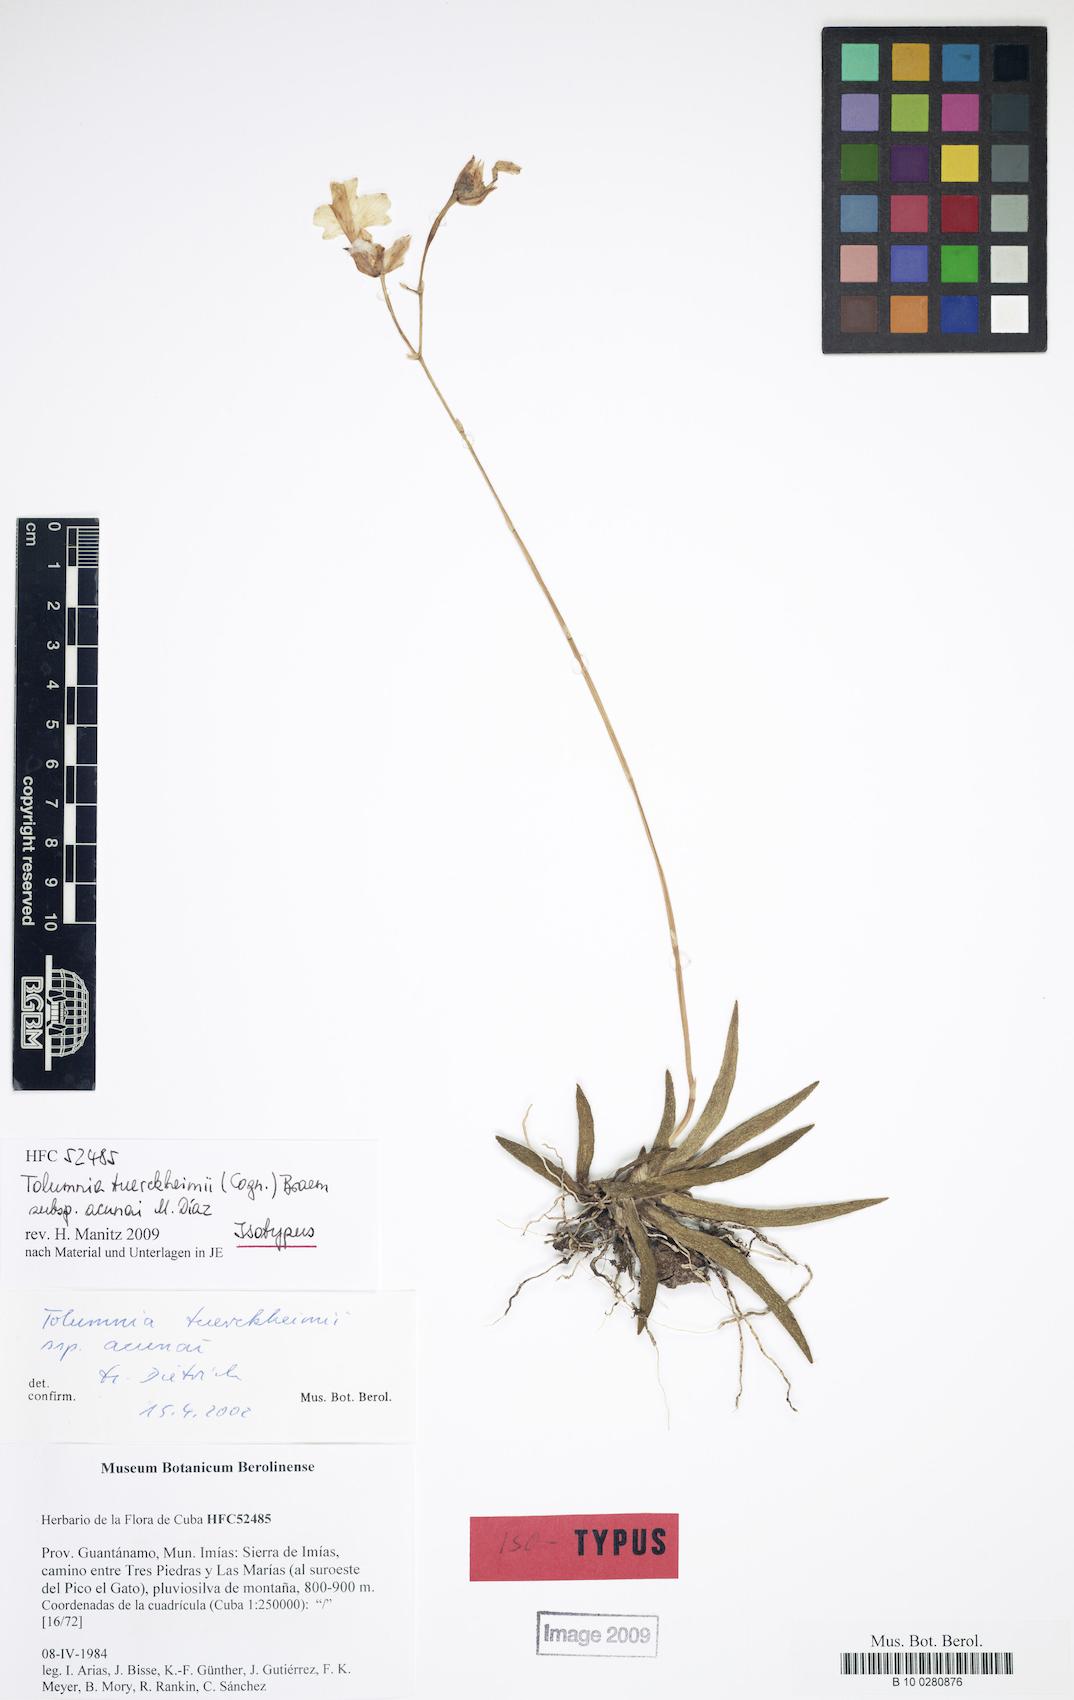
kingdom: Plantae
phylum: Tracheophyta
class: Liliopsida
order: Asparagales
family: Orchidaceae
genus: Tolumnia
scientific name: Tolumnia tuerckheimii
